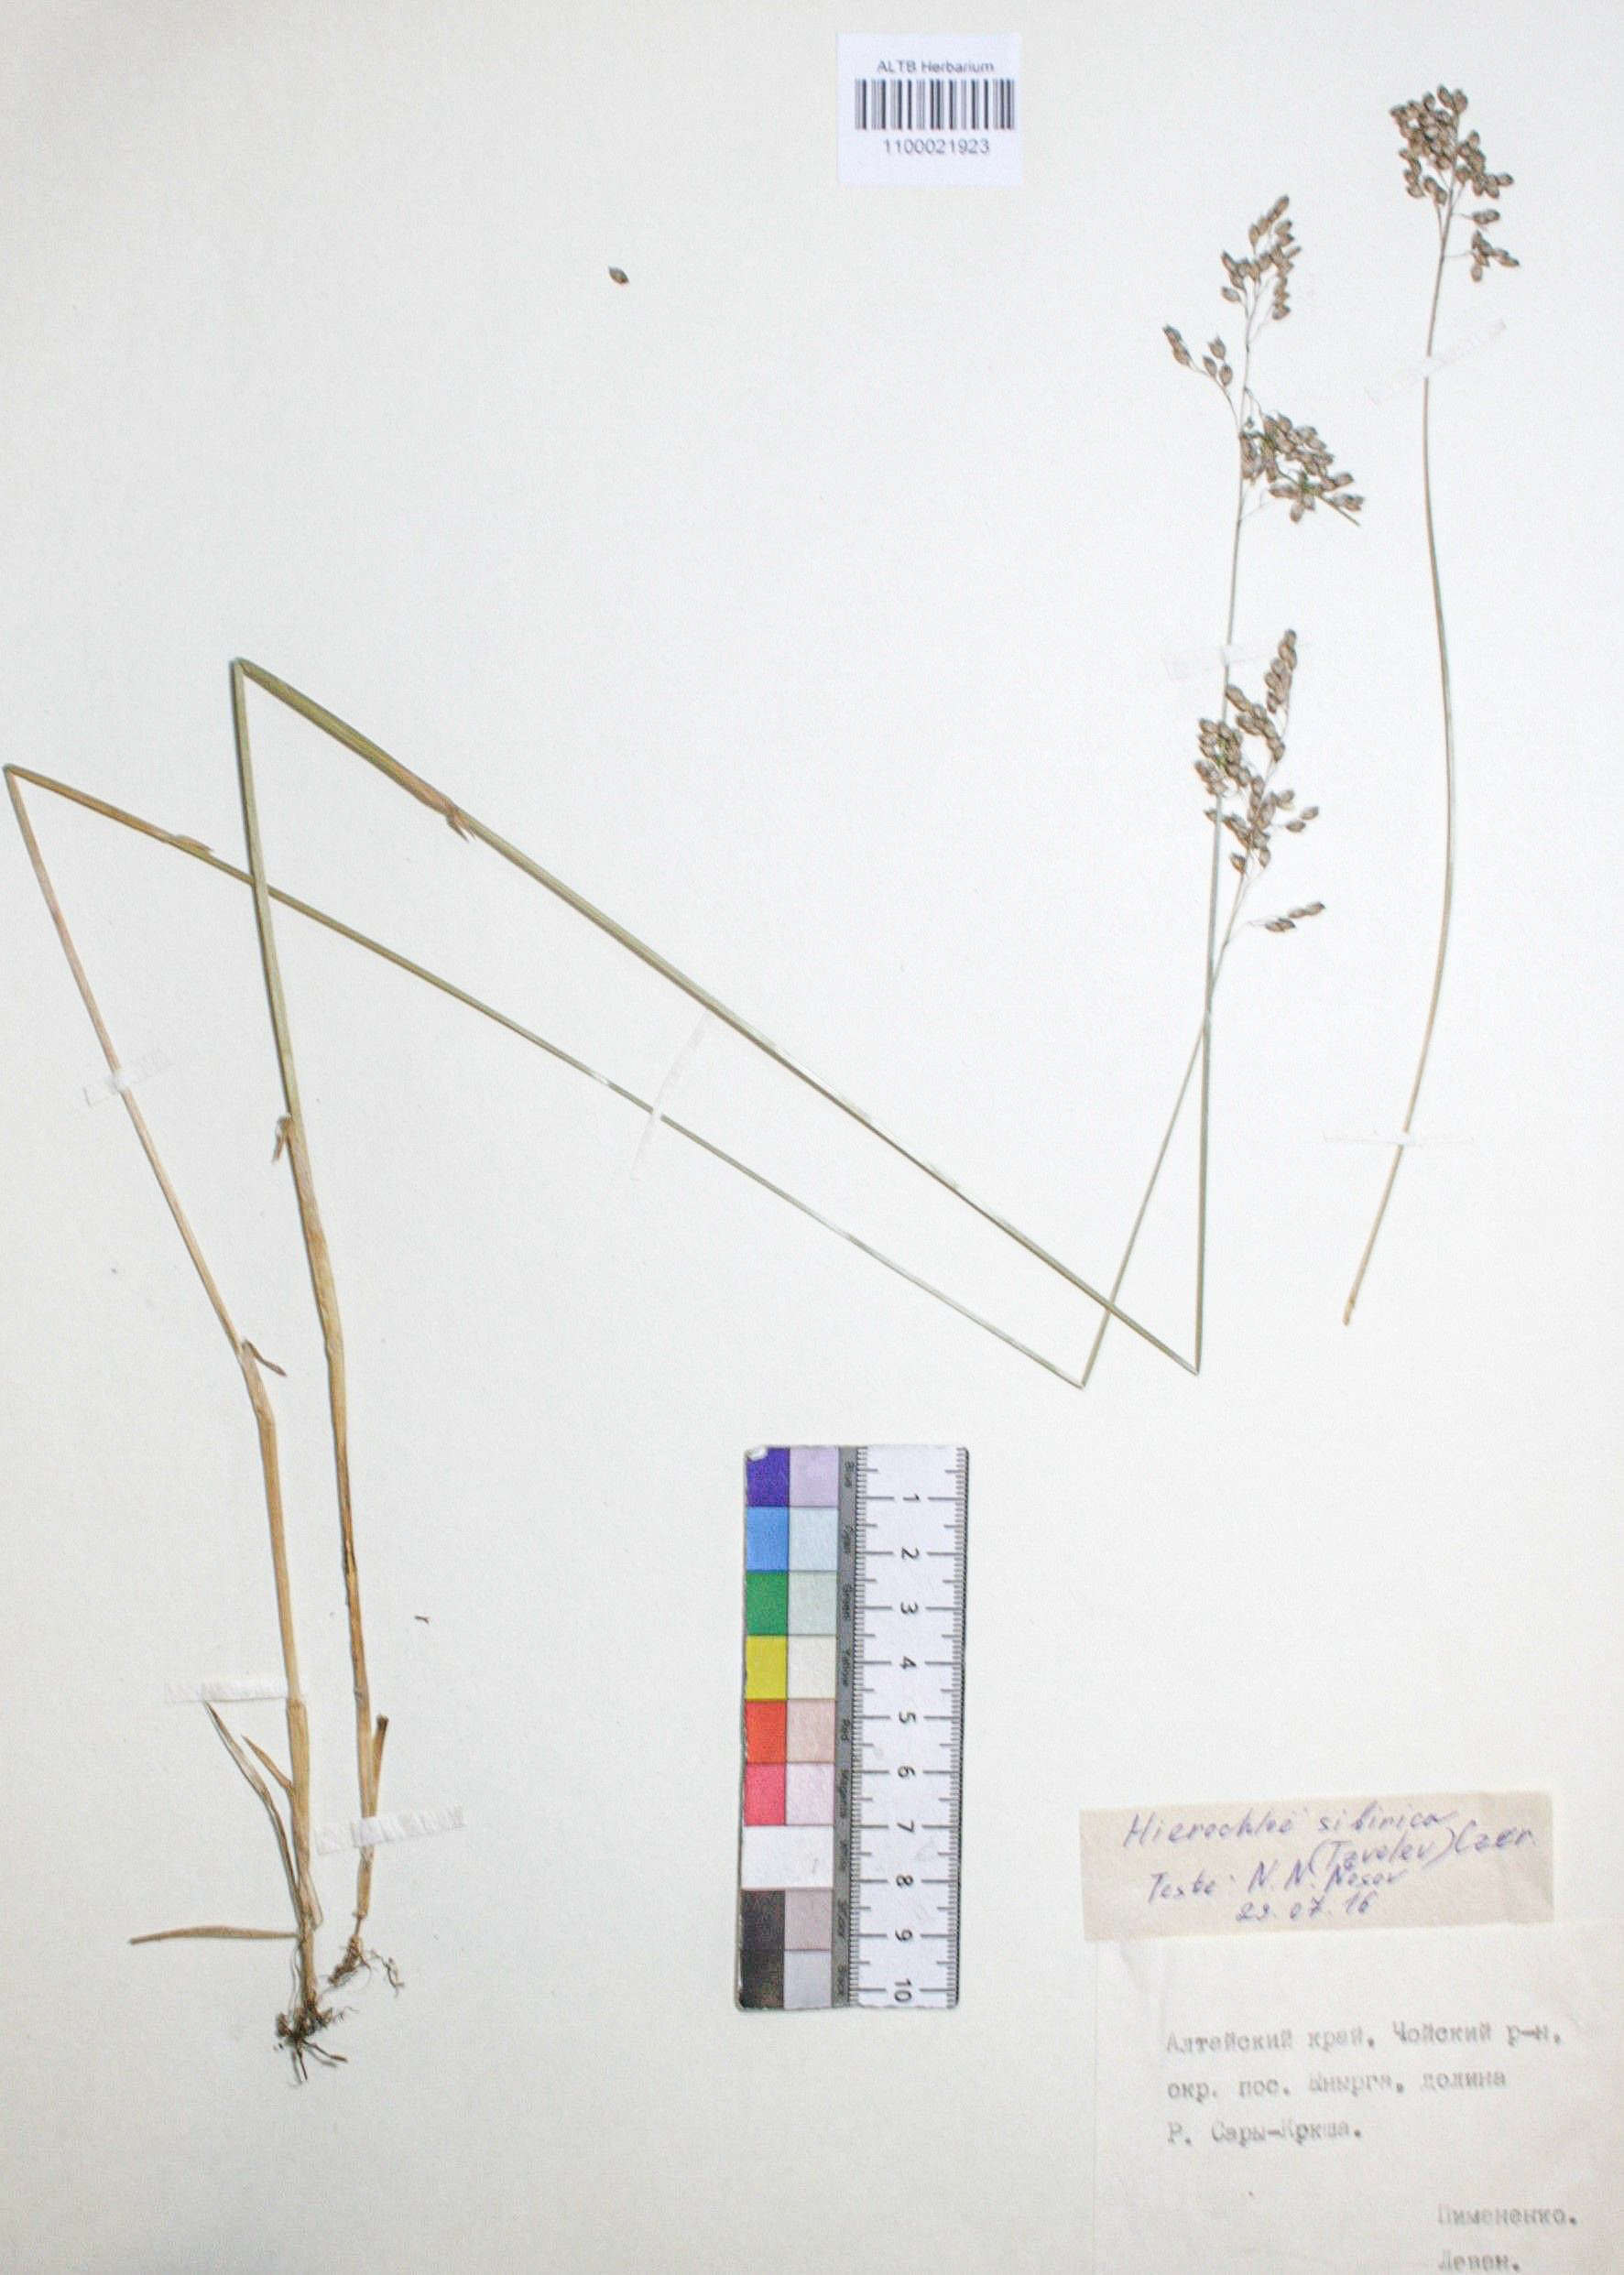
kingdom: Plantae
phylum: Tracheophyta
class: Liliopsida
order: Poales
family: Poaceae
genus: Anthoxanthum
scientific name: Anthoxanthum glabrum
